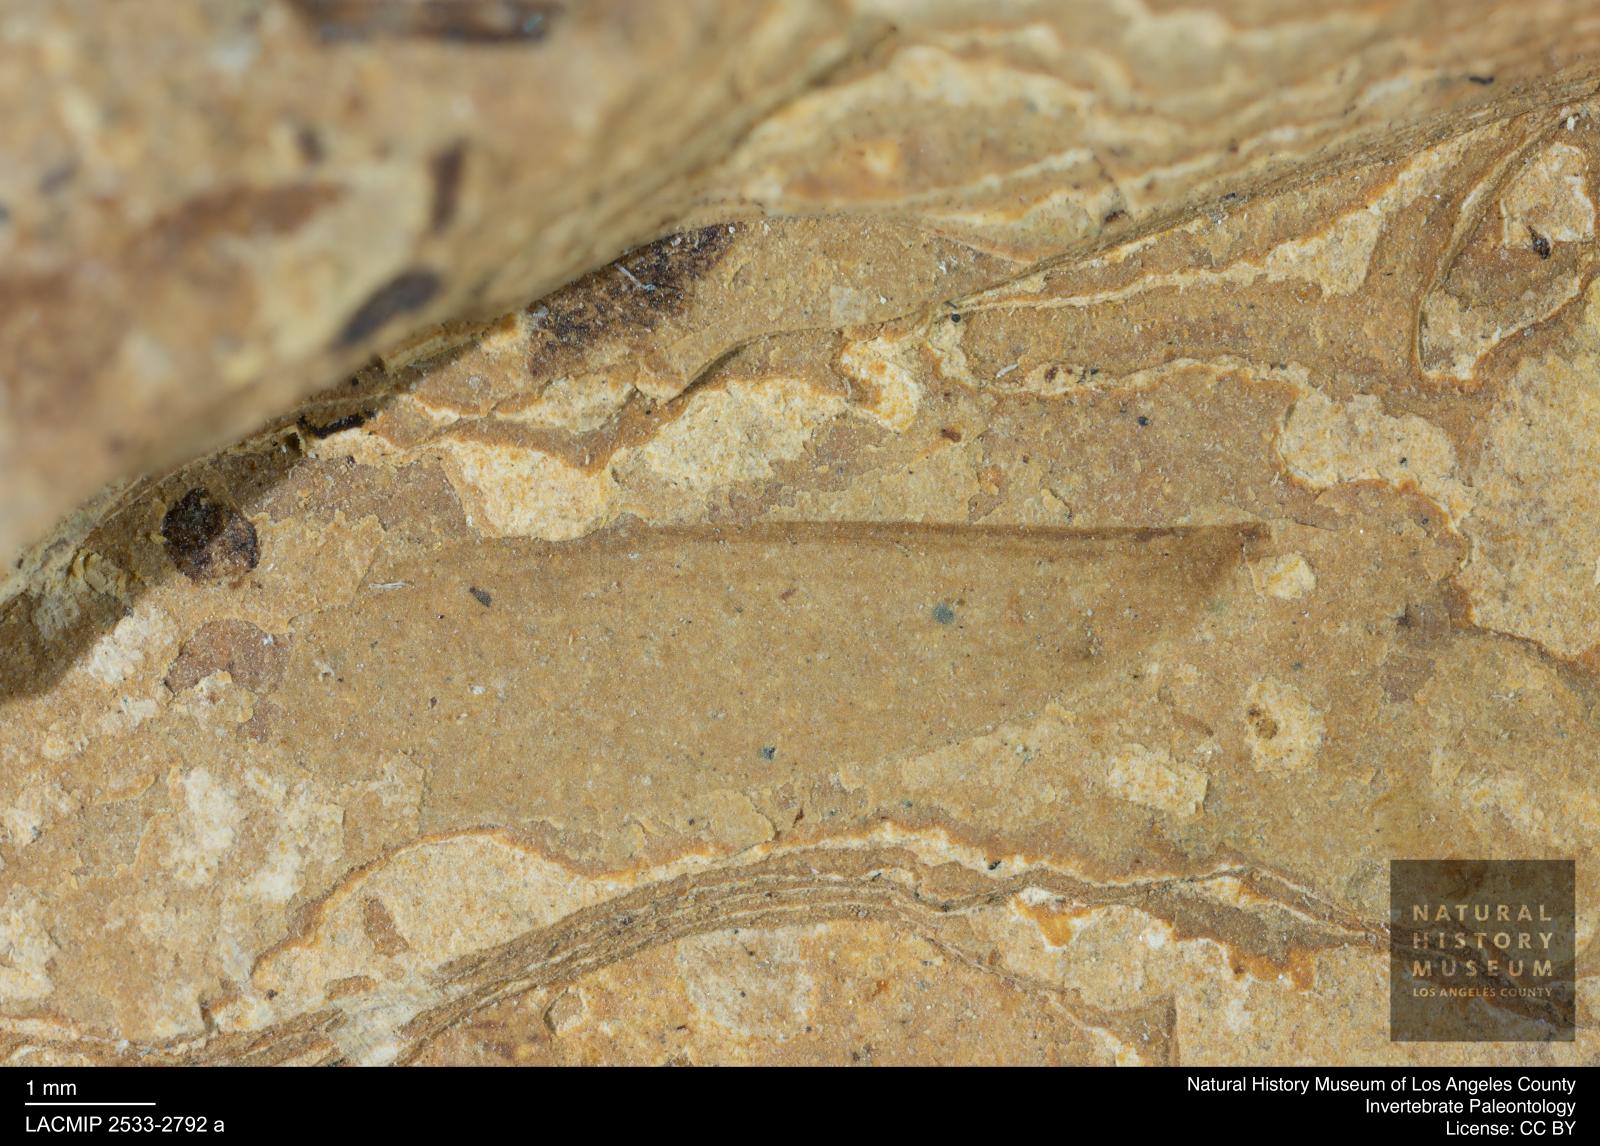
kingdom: Animalia
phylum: Arthropoda
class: Insecta
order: Blattodea
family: Kalotermitidae
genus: Kalotermes
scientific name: Kalotermes rhenanus
